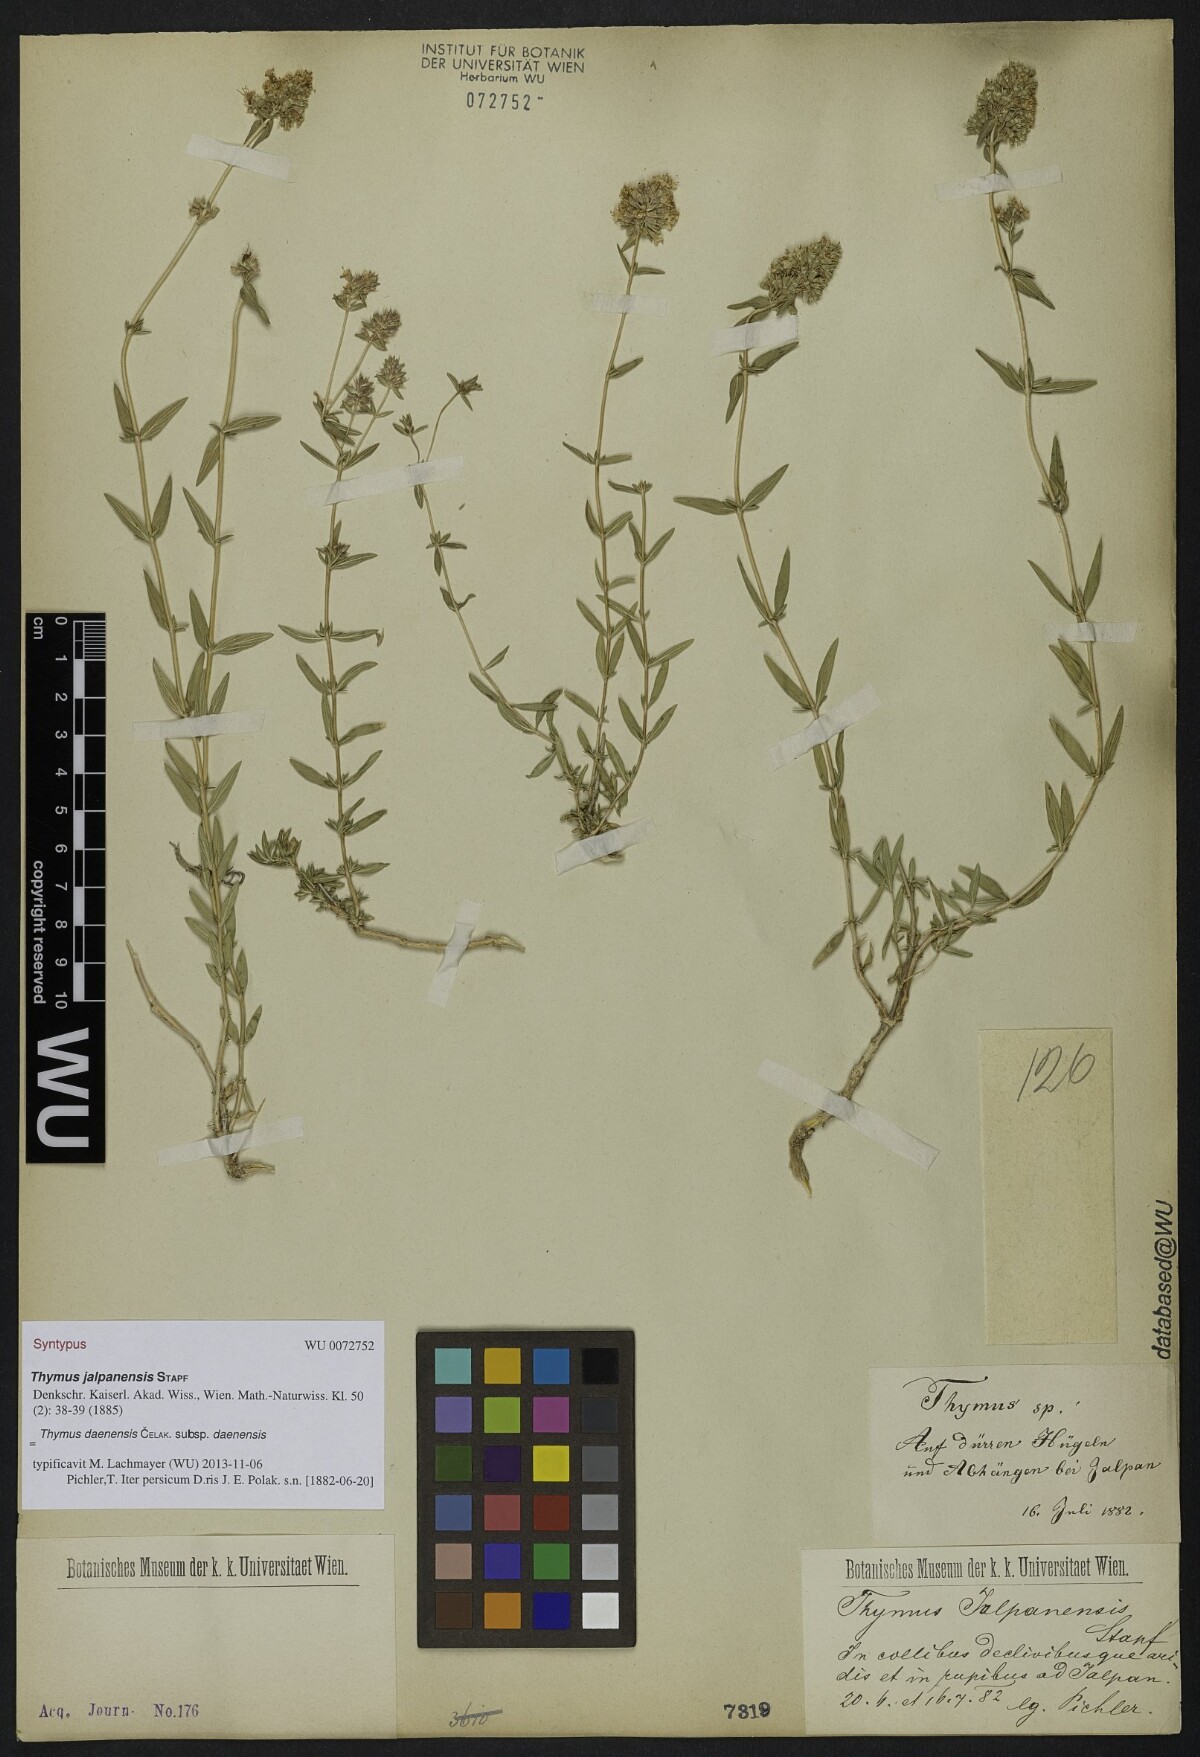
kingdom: Plantae
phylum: Tracheophyta
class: Magnoliopsida
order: Lamiales
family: Lamiaceae
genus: Thymus
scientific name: Thymus daenensis
